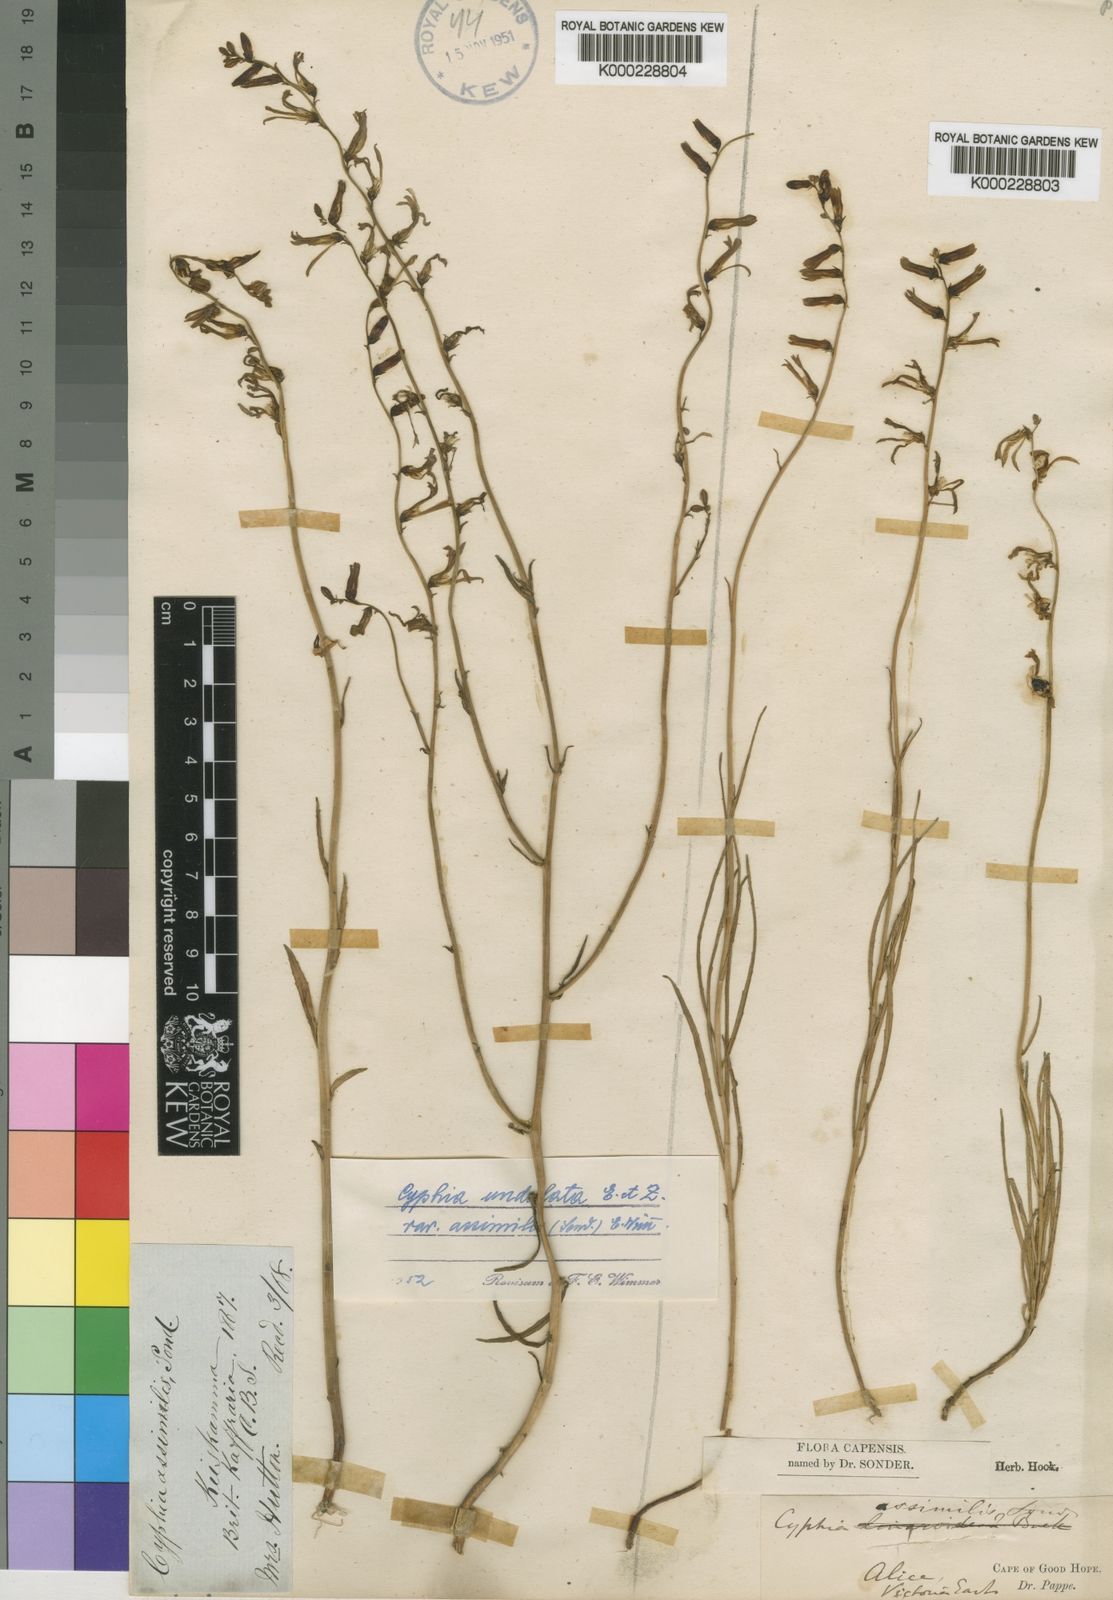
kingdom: Plantae
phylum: Tracheophyta
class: Magnoliopsida
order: Asterales
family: Campanulaceae
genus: Cyphia
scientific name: Cyphia
